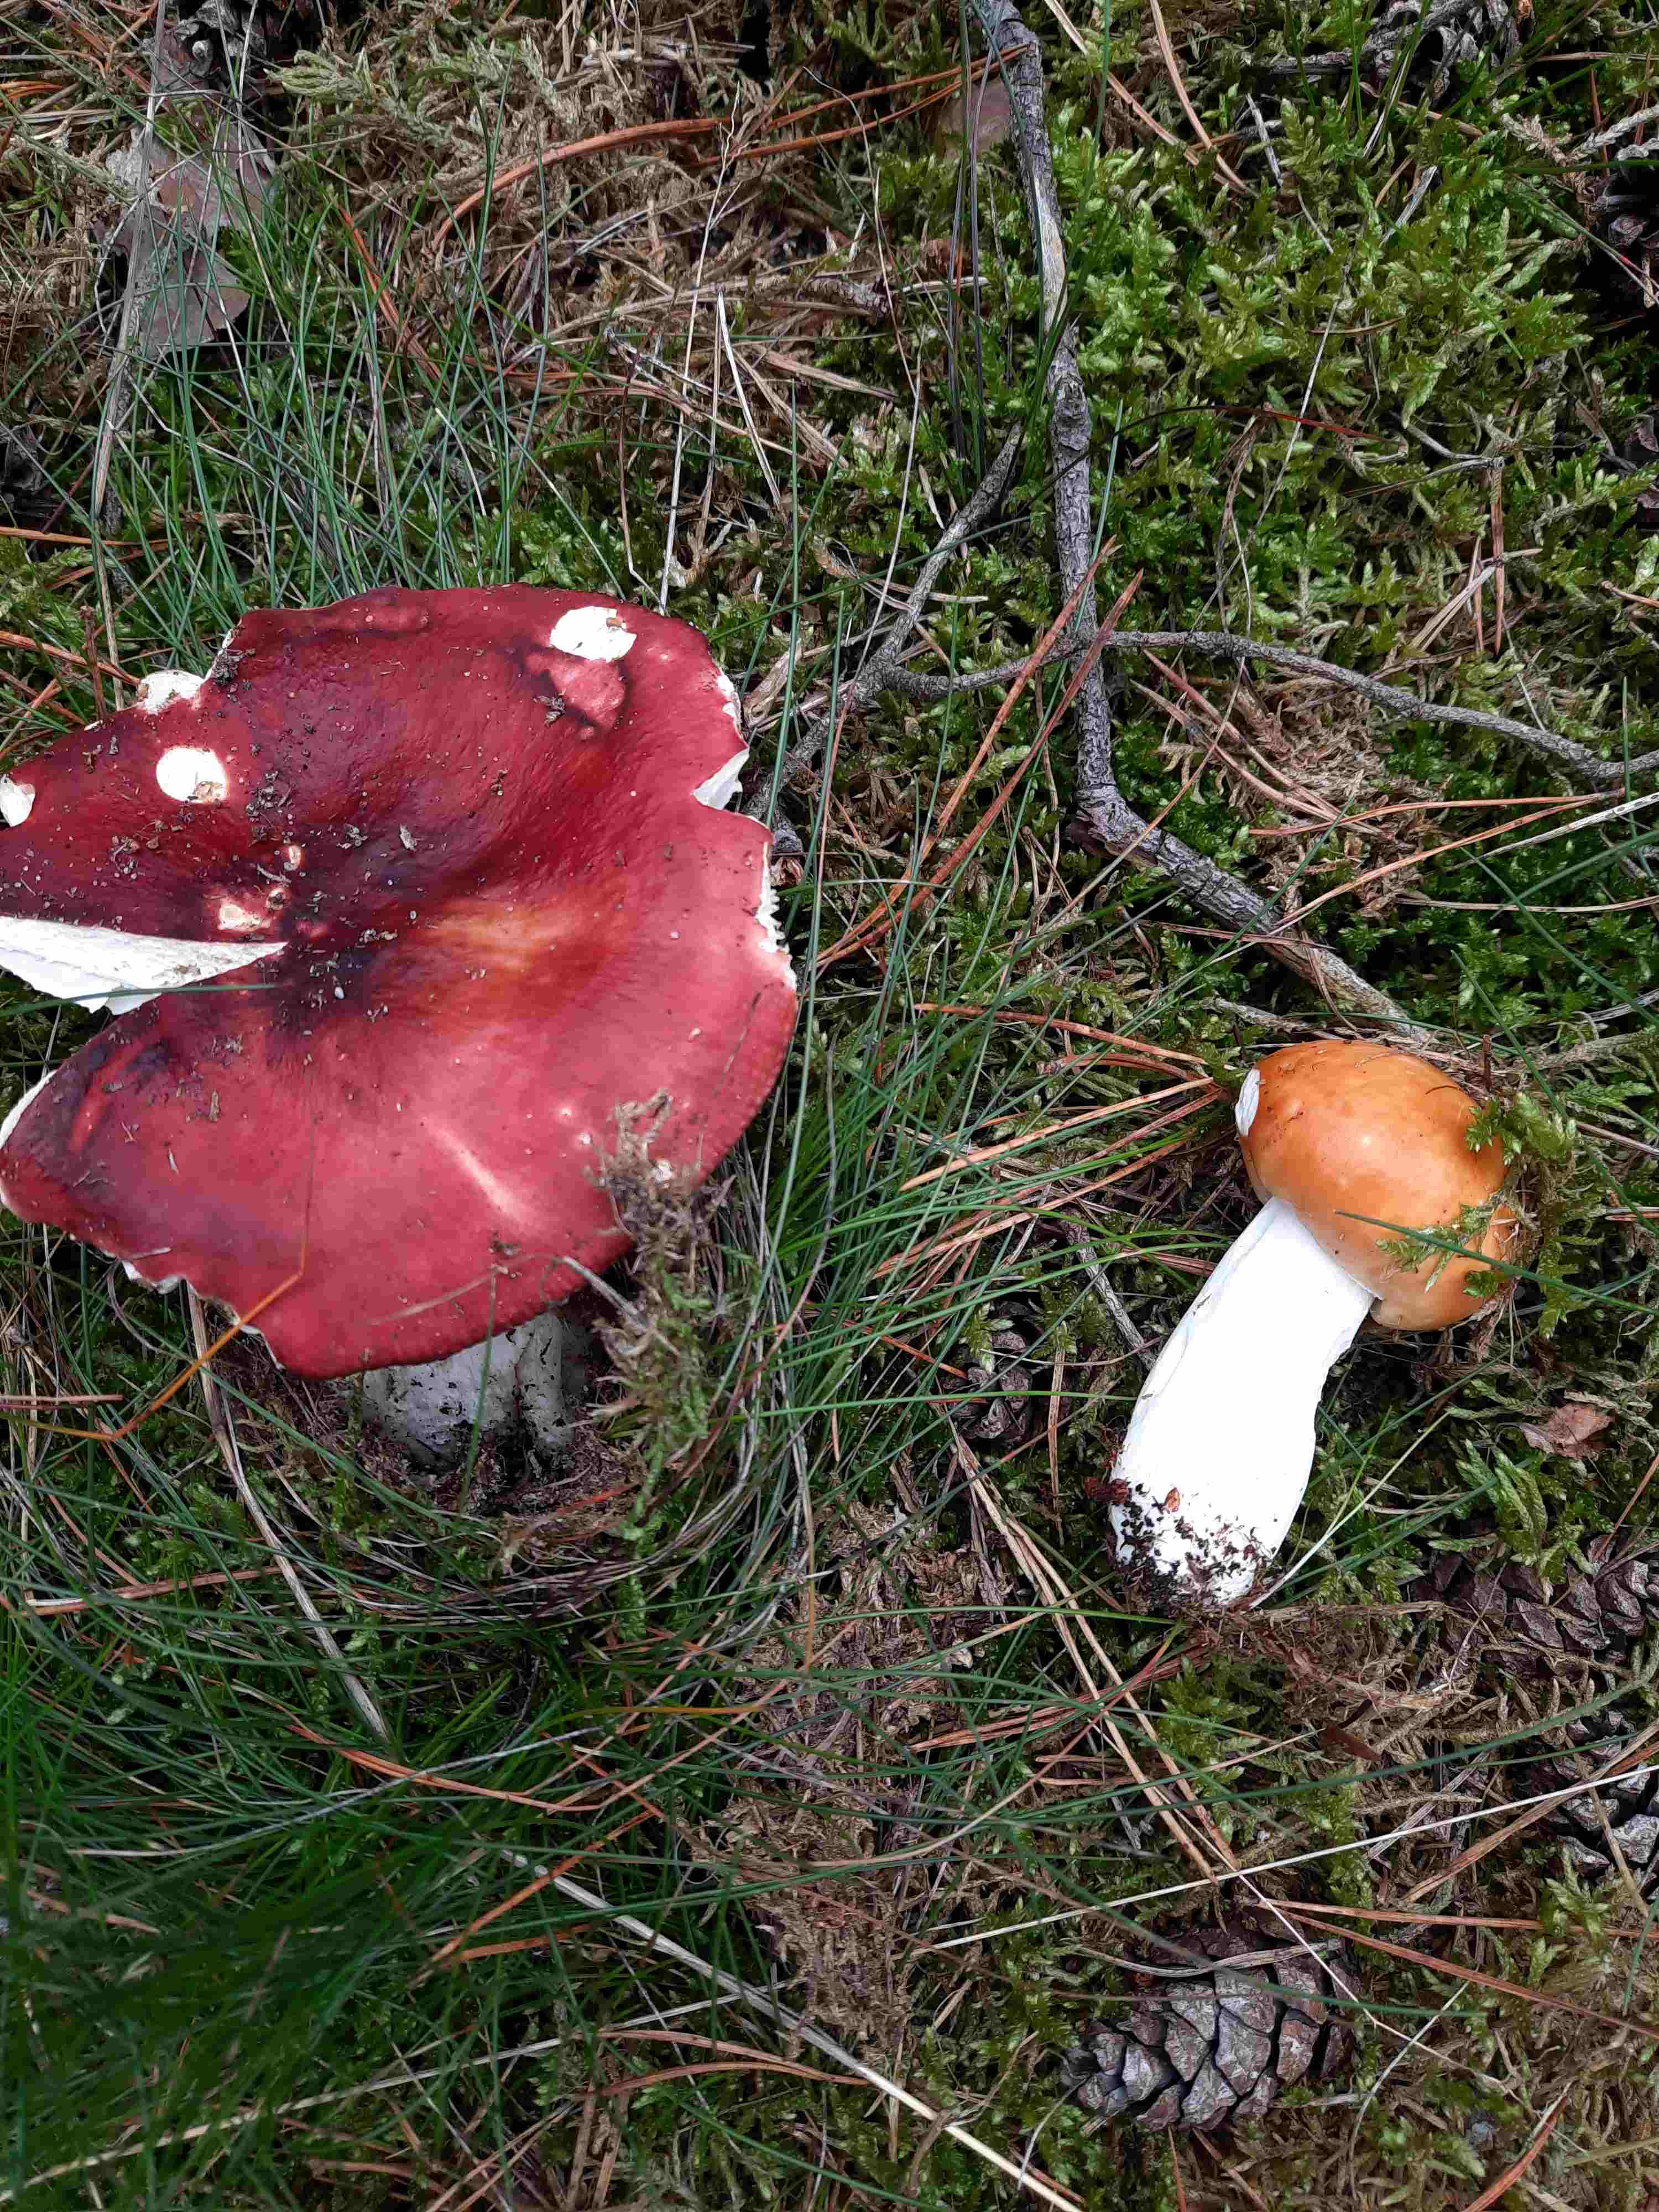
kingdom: Fungi
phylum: Basidiomycota
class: Agaricomycetes
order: Russulales
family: Russulaceae
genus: Russula
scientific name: Russula paludosa
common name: prægtig skørhat
